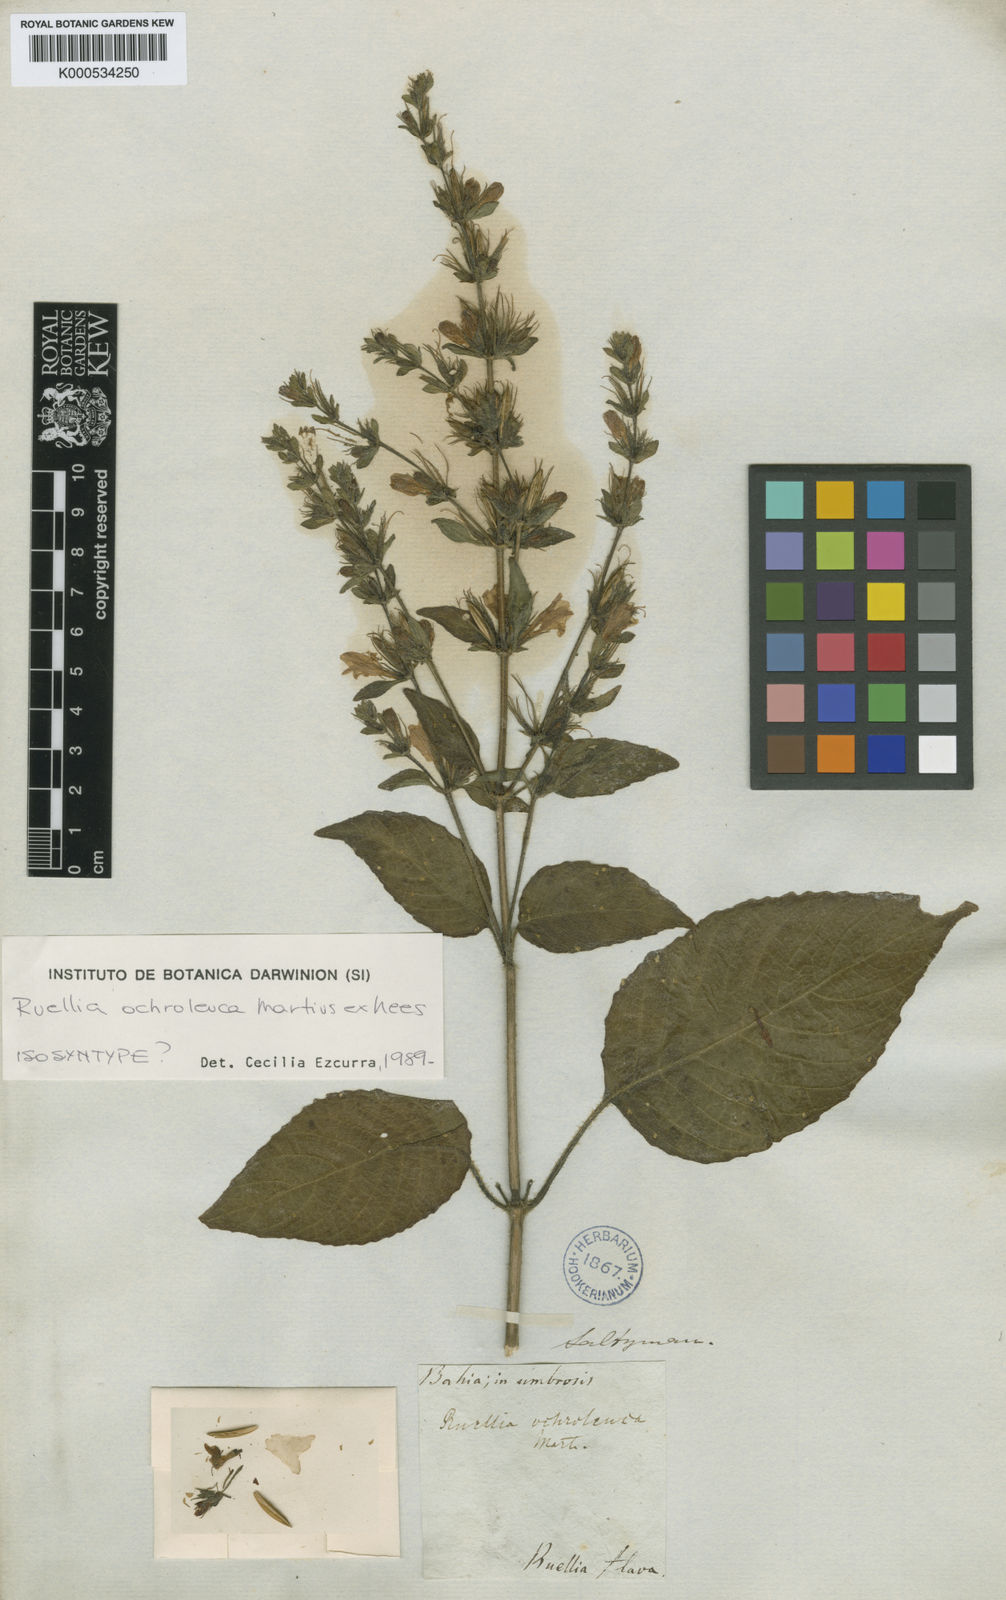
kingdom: Plantae
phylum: Tracheophyta
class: Magnoliopsida
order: Lamiales
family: Acanthaceae
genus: Ruellia
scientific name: Ruellia ochroleuca
